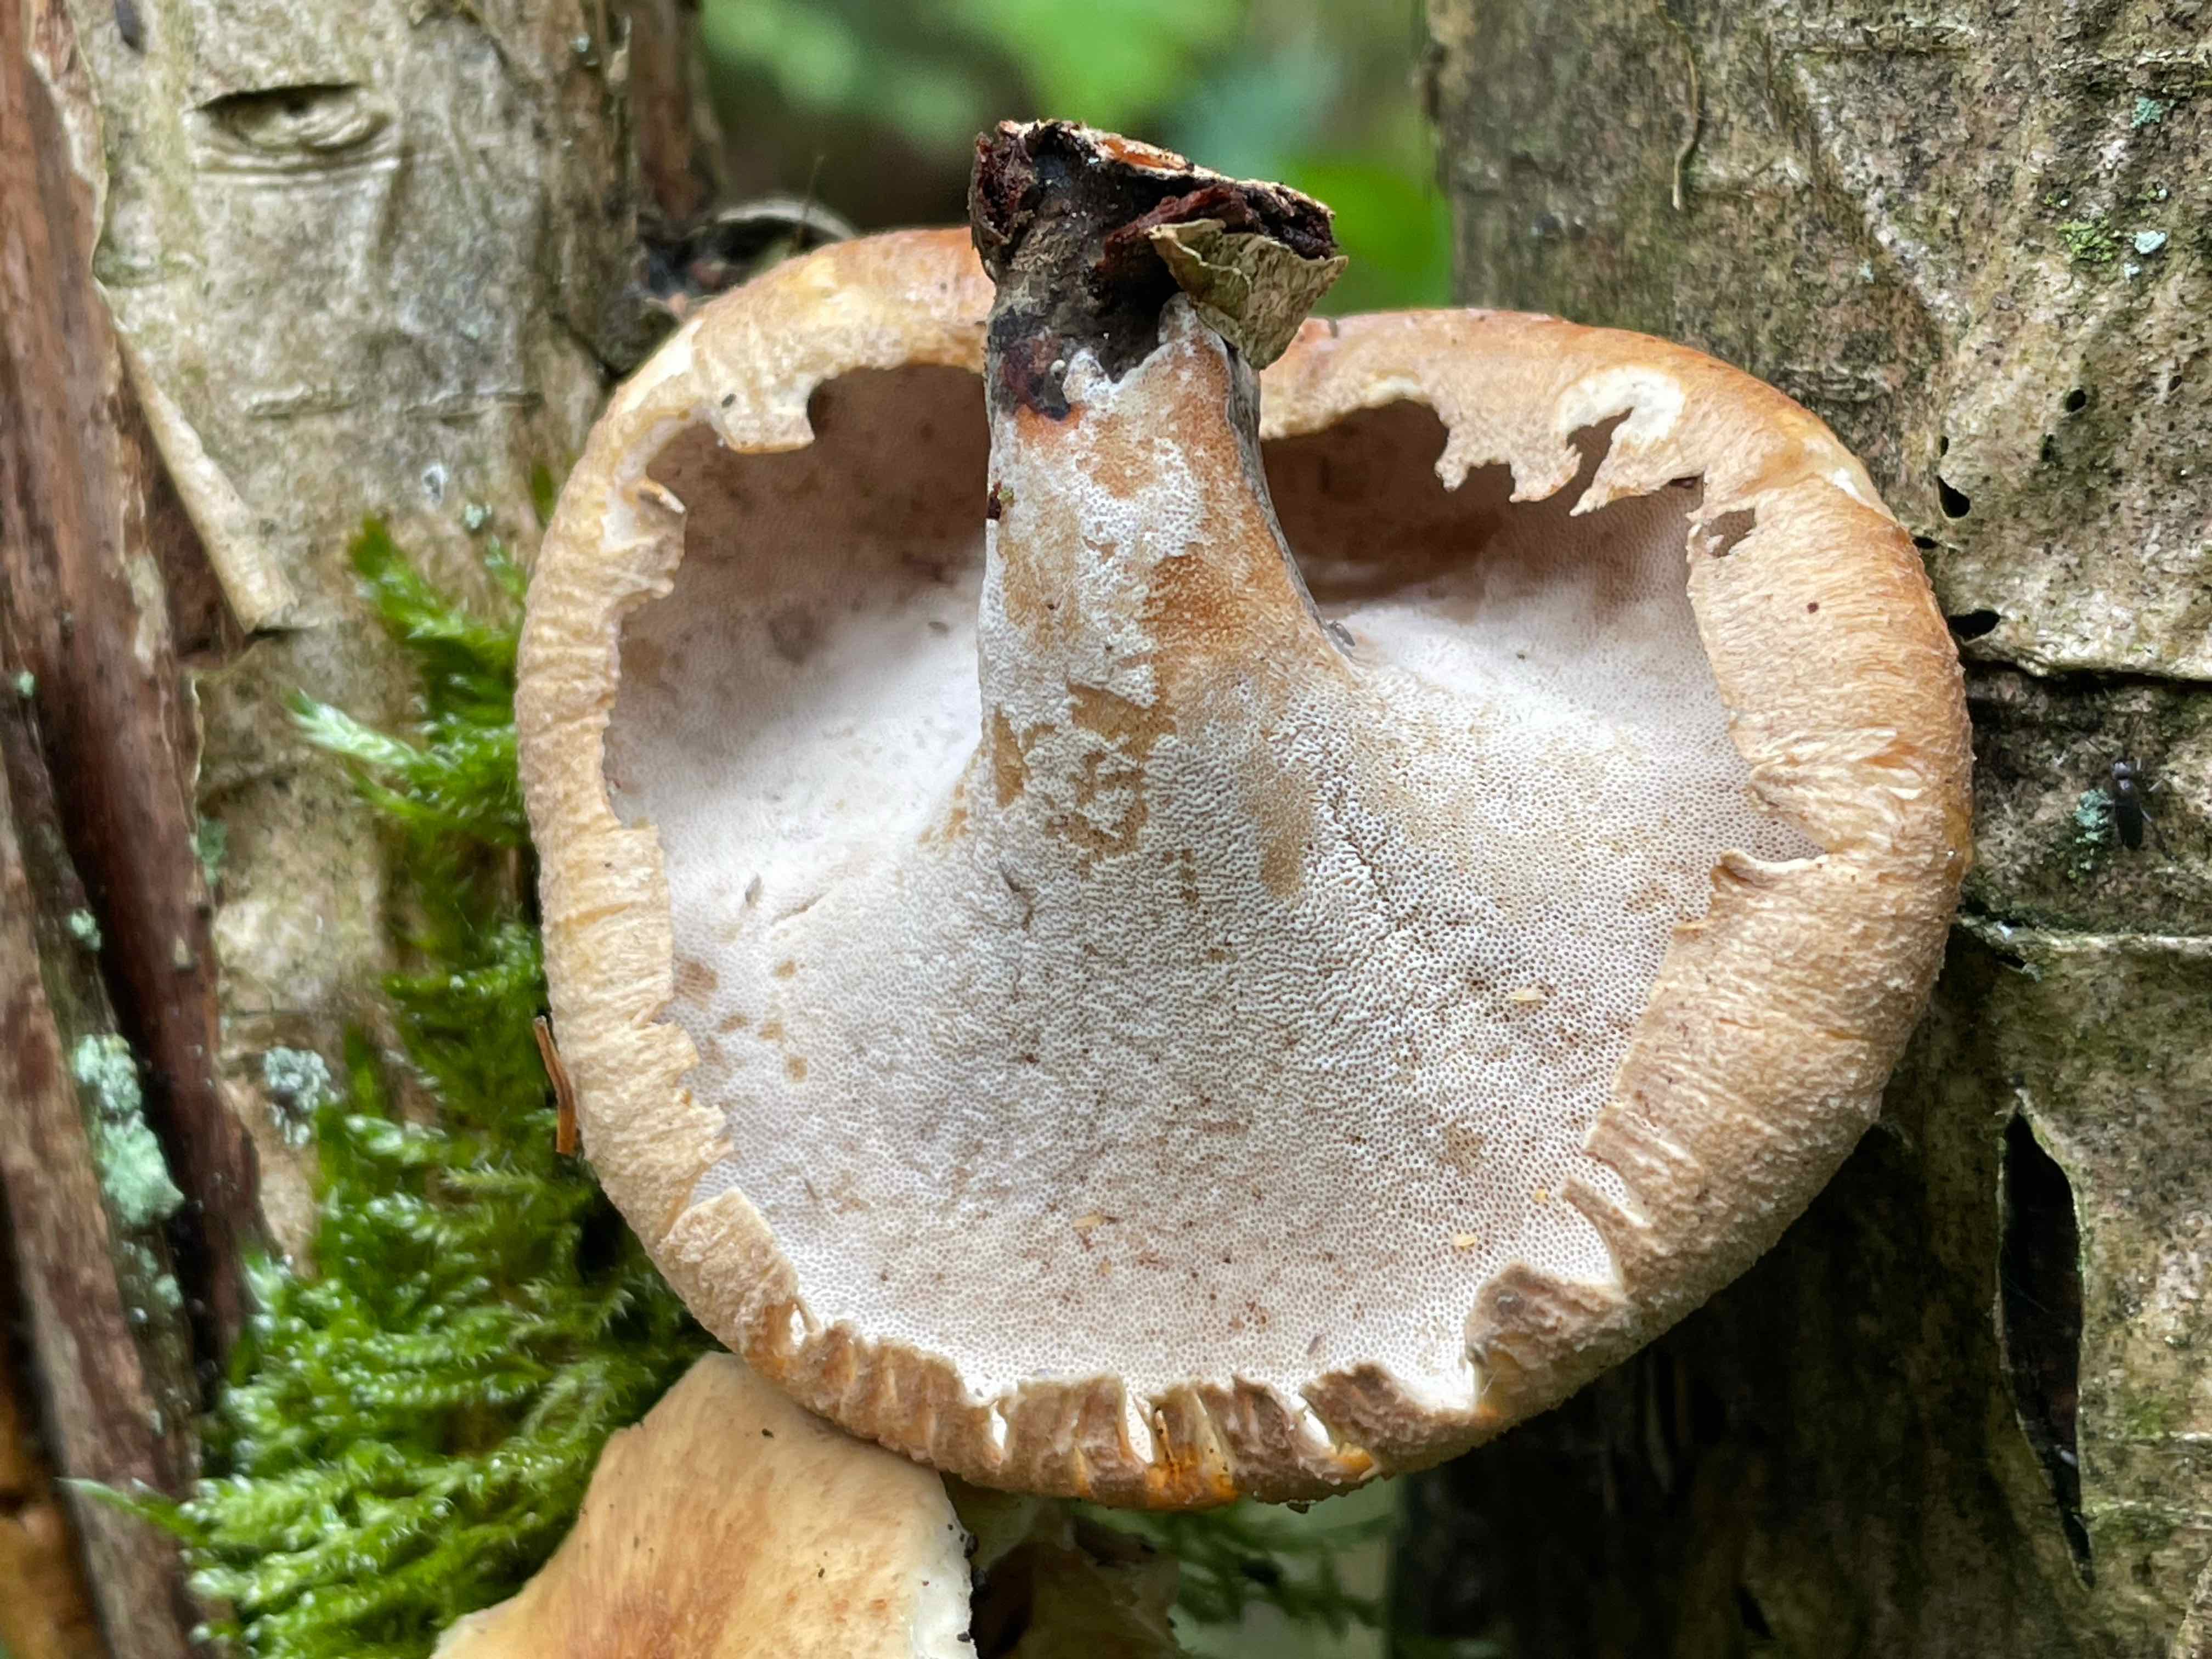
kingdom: Fungi
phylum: Basidiomycota
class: Agaricomycetes
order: Polyporales
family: Polyporaceae
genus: Cerioporus
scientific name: Cerioporus varius
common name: foranderlig stilkporesvamp
